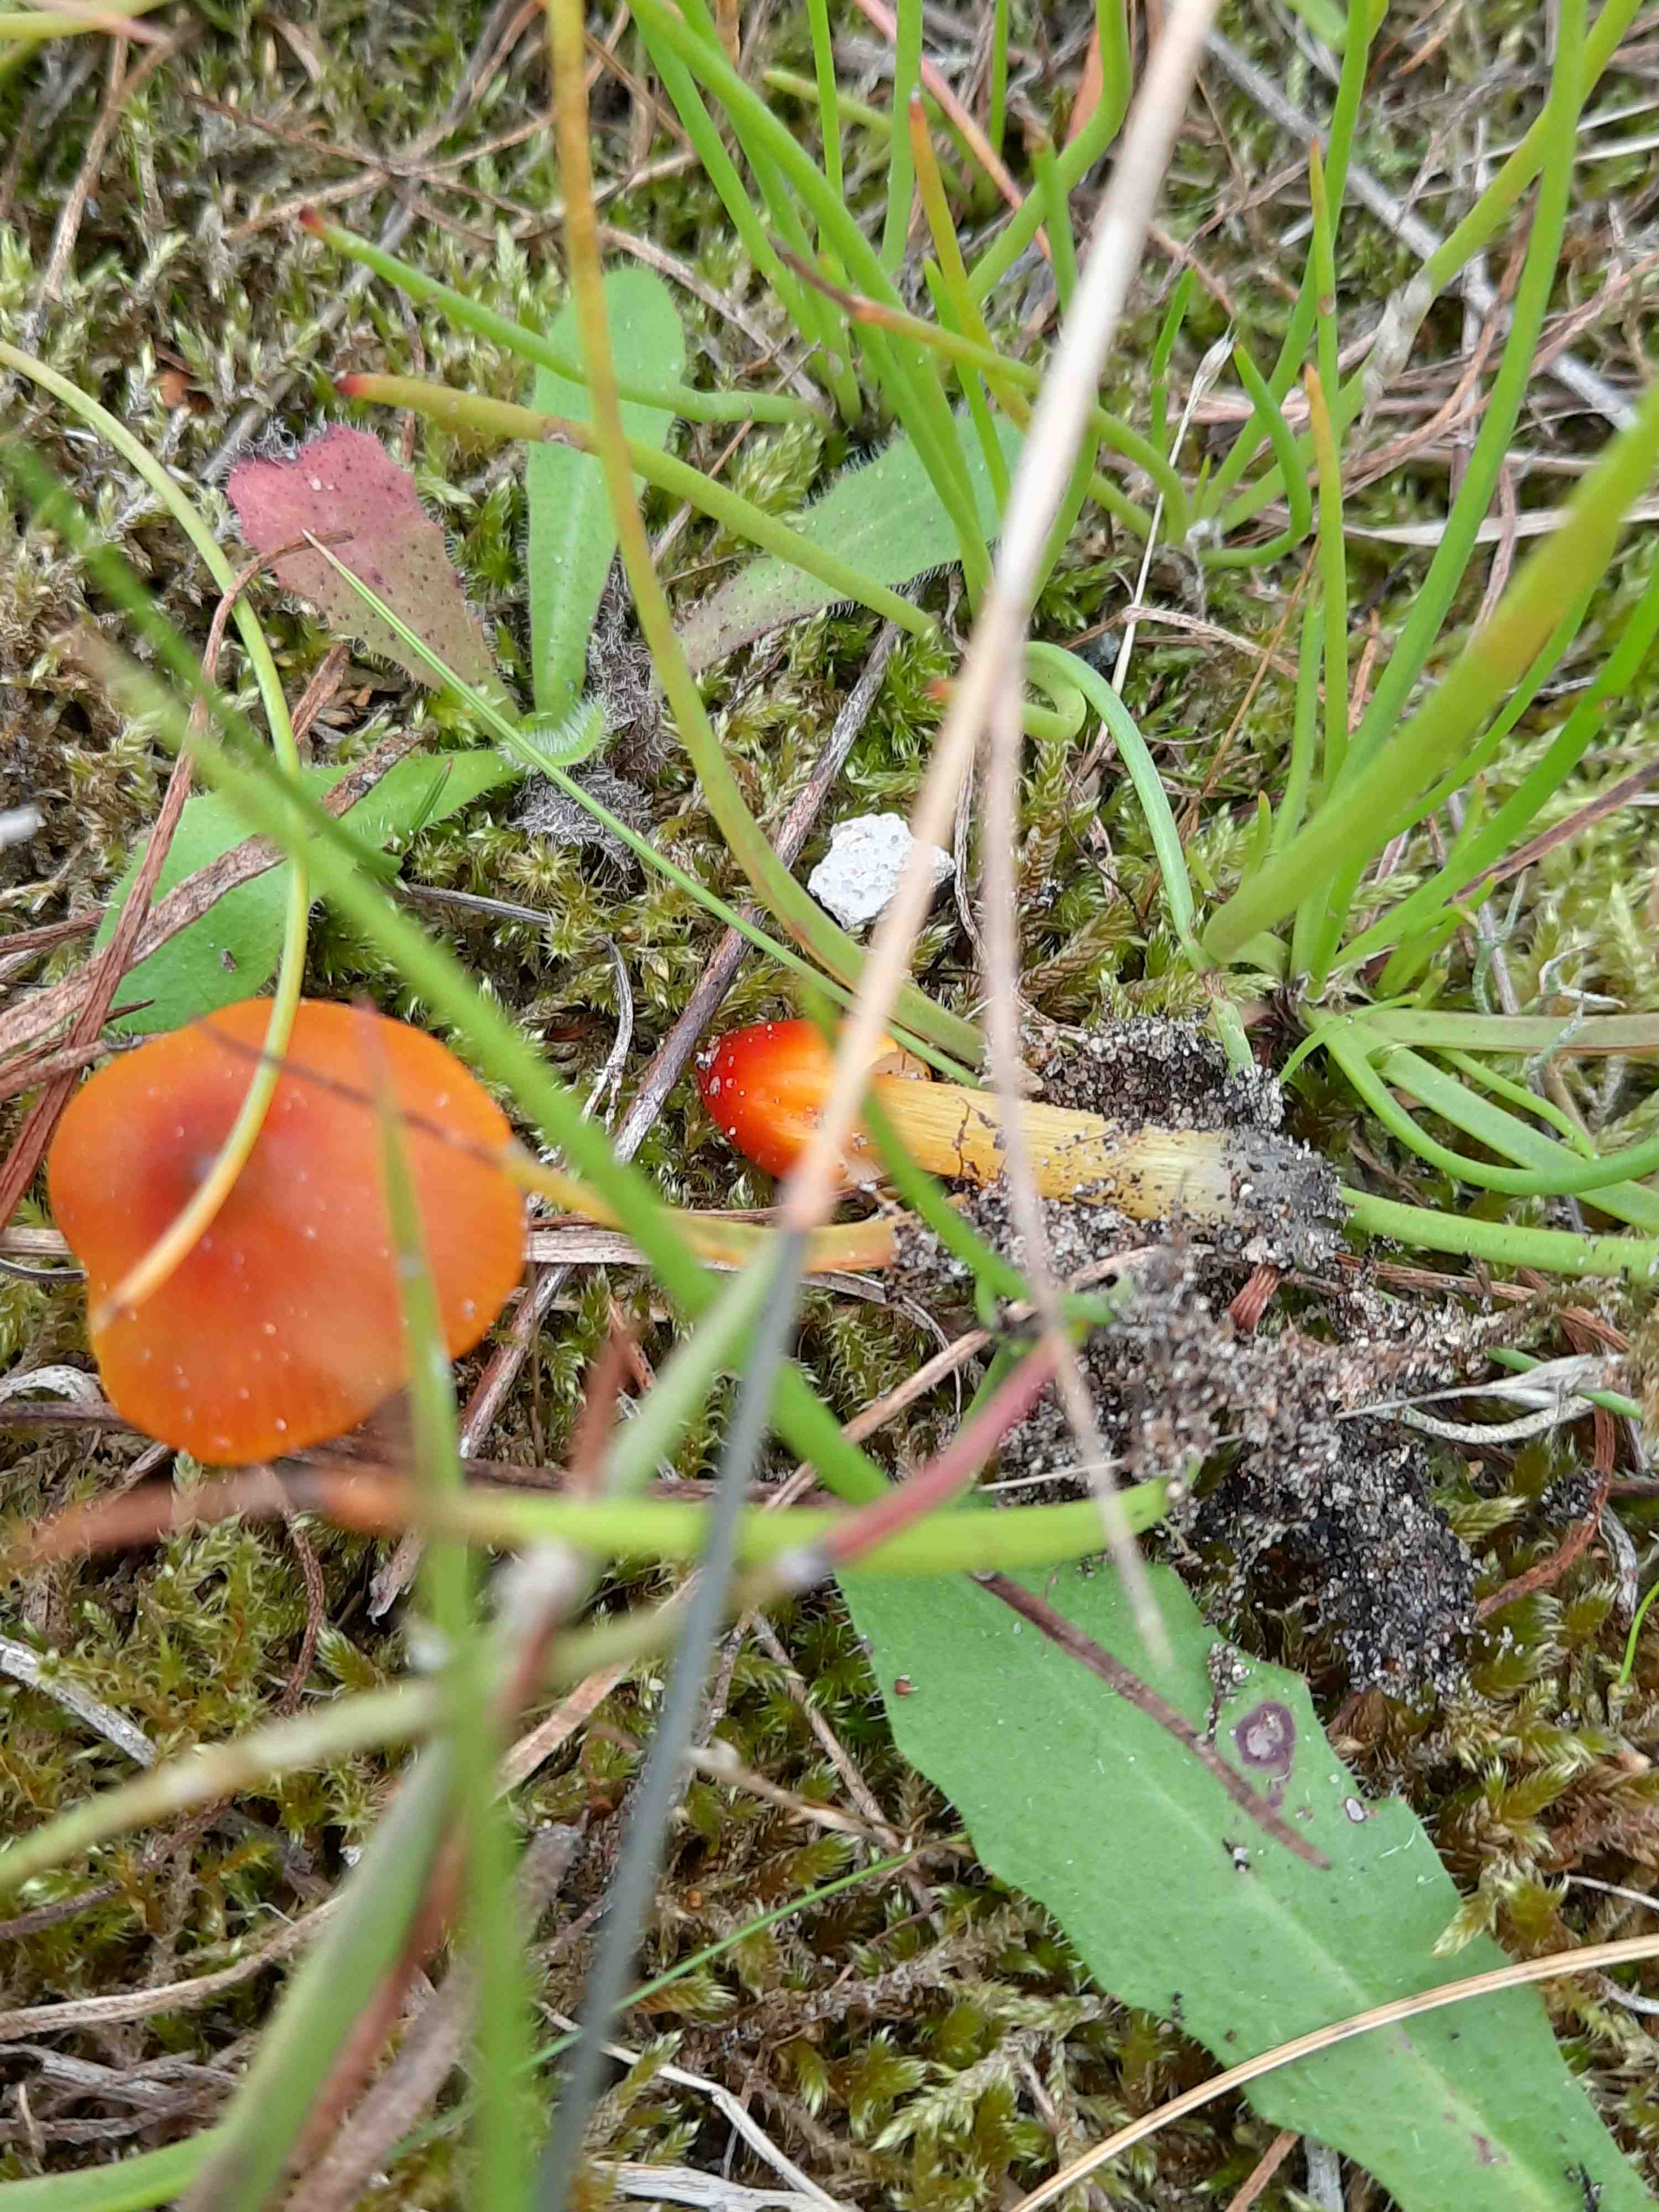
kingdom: Fungi
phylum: Basidiomycota
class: Agaricomycetes
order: Agaricales
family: Hygrophoraceae
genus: Hygrocybe
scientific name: Hygrocybe conica
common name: kegle-vokshat
